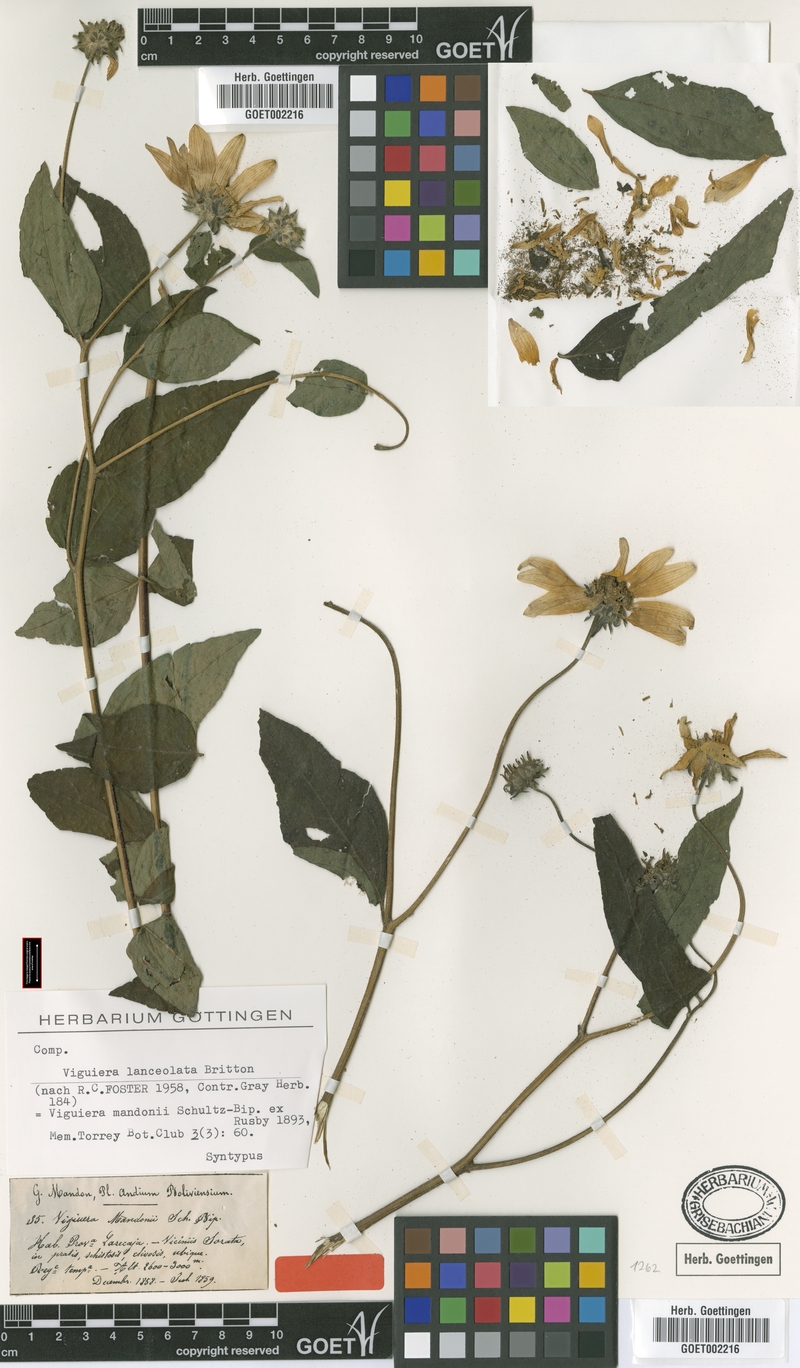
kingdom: Plantae
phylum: Tracheophyta
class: Magnoliopsida
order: Asterales
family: Asteraceae
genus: Aldama
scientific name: Aldama lanceolata
